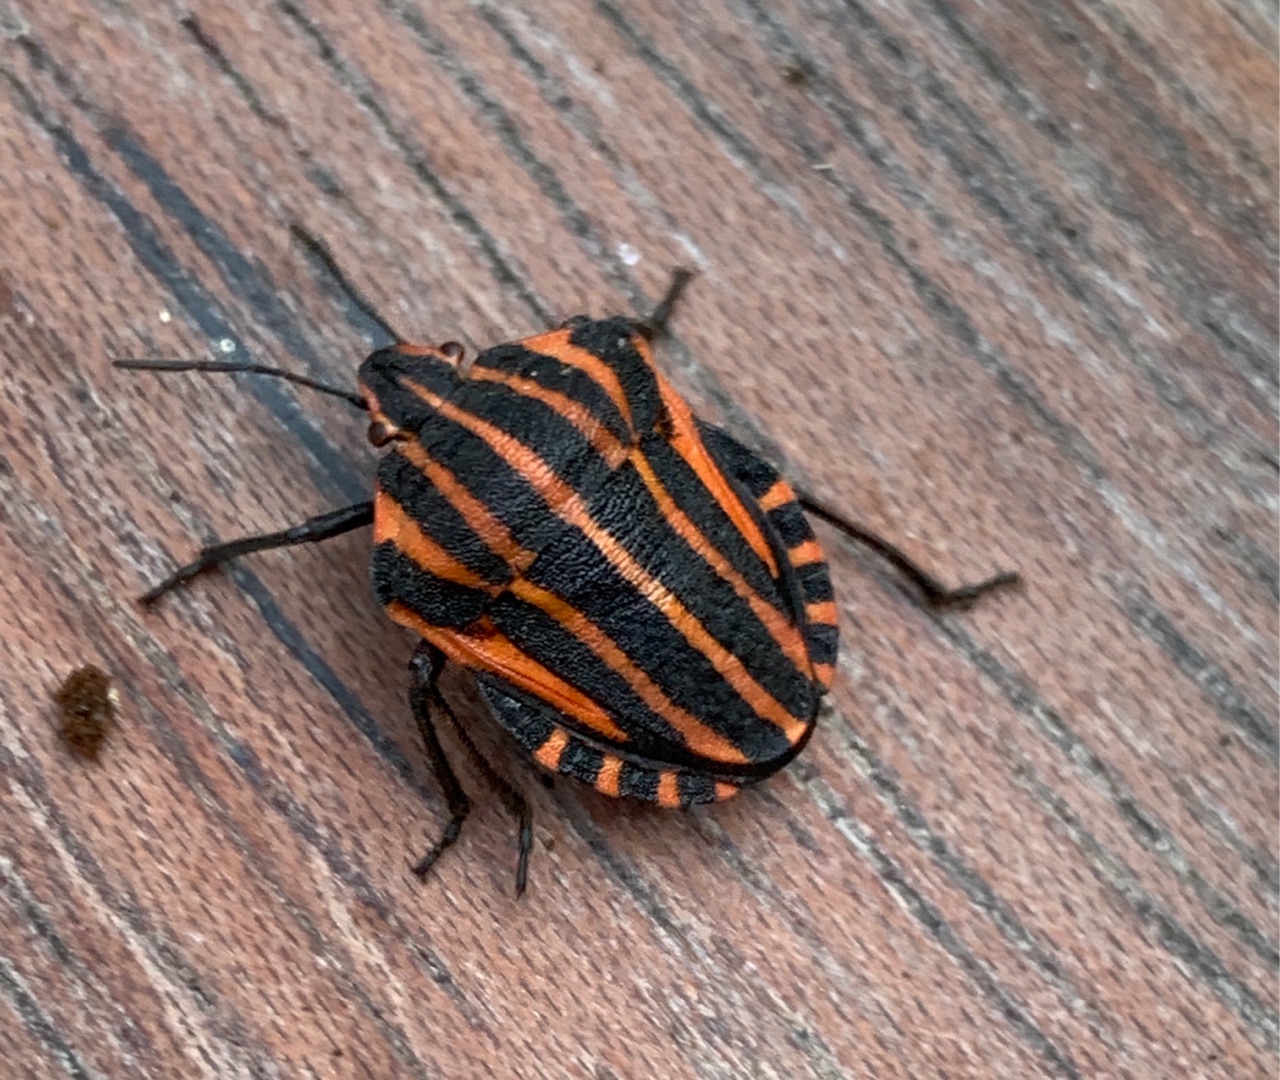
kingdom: Animalia
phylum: Arthropoda
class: Insecta
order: Hemiptera
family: Pentatomidae
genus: Graphosoma
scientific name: Graphosoma italicum
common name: Stribetæge
